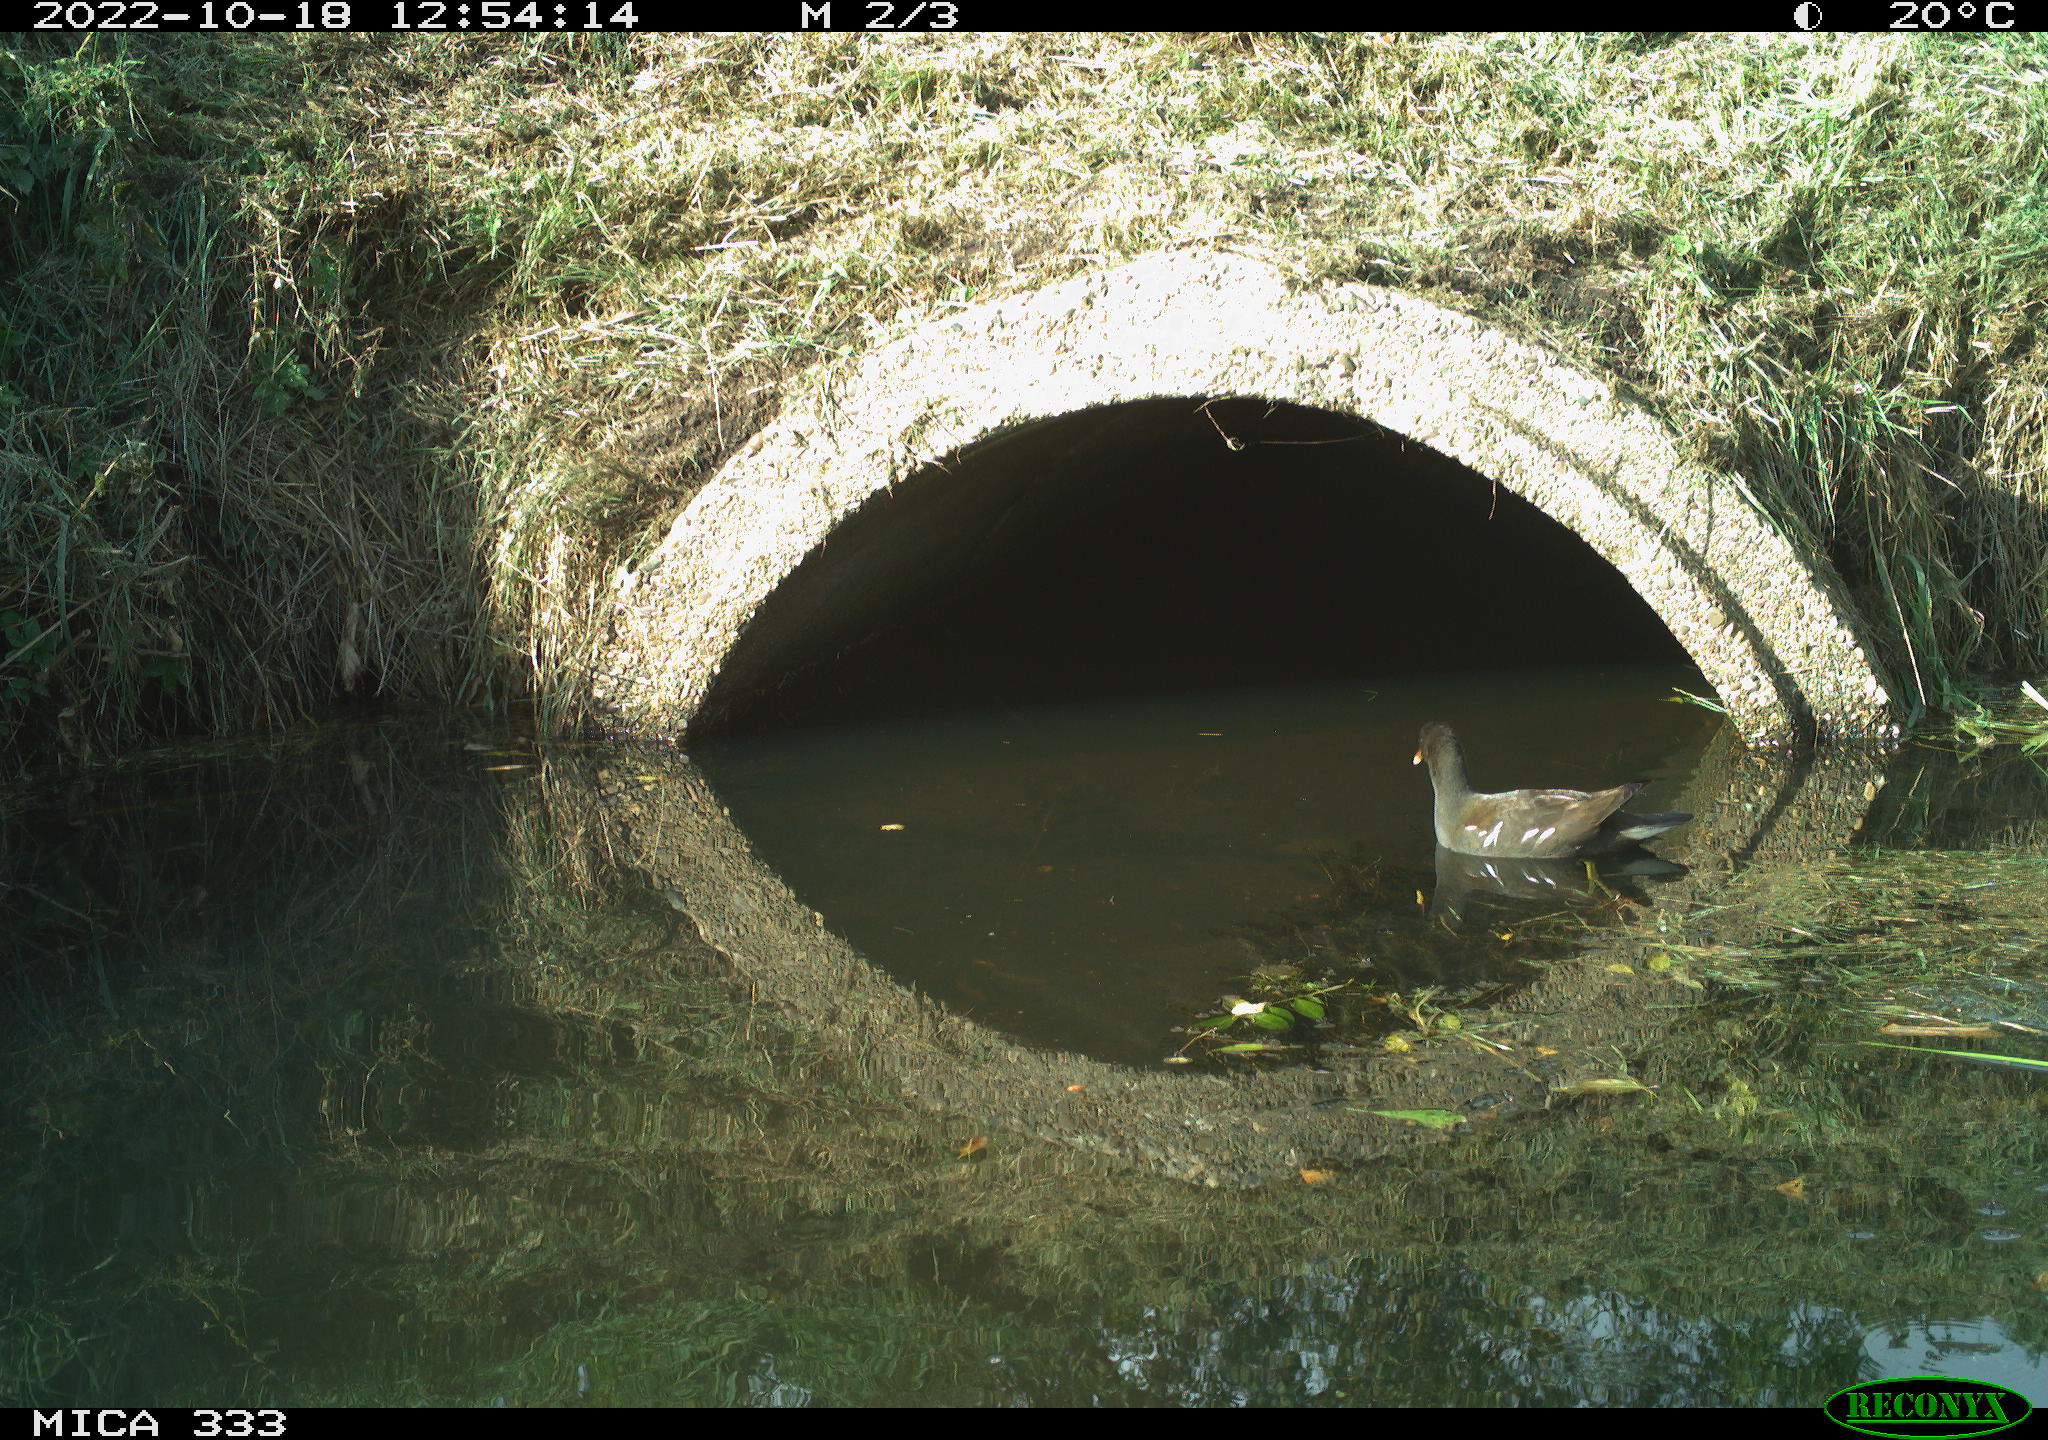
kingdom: Animalia
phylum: Chordata
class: Aves
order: Gruiformes
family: Rallidae
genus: Gallinula
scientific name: Gallinula chloropus
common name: Common moorhen
